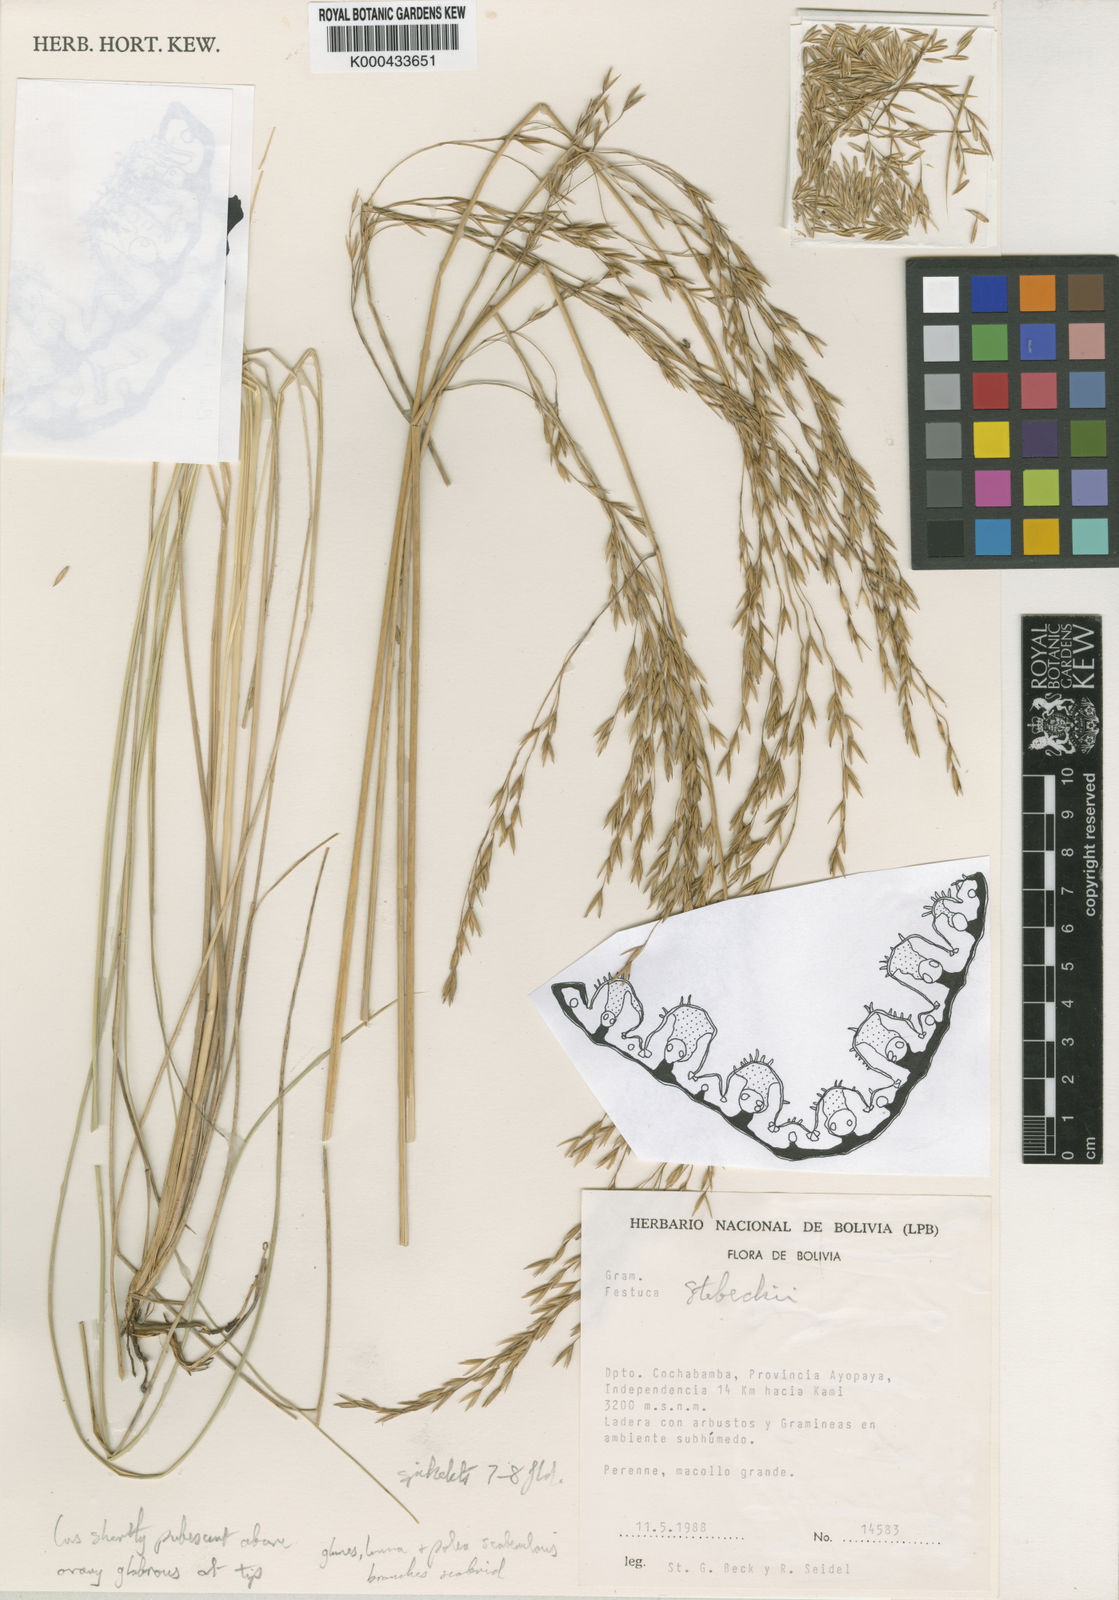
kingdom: Plantae
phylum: Tracheophyta
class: Liliopsida
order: Poales
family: Poaceae
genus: Festuca
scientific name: Festuca stebeckii
